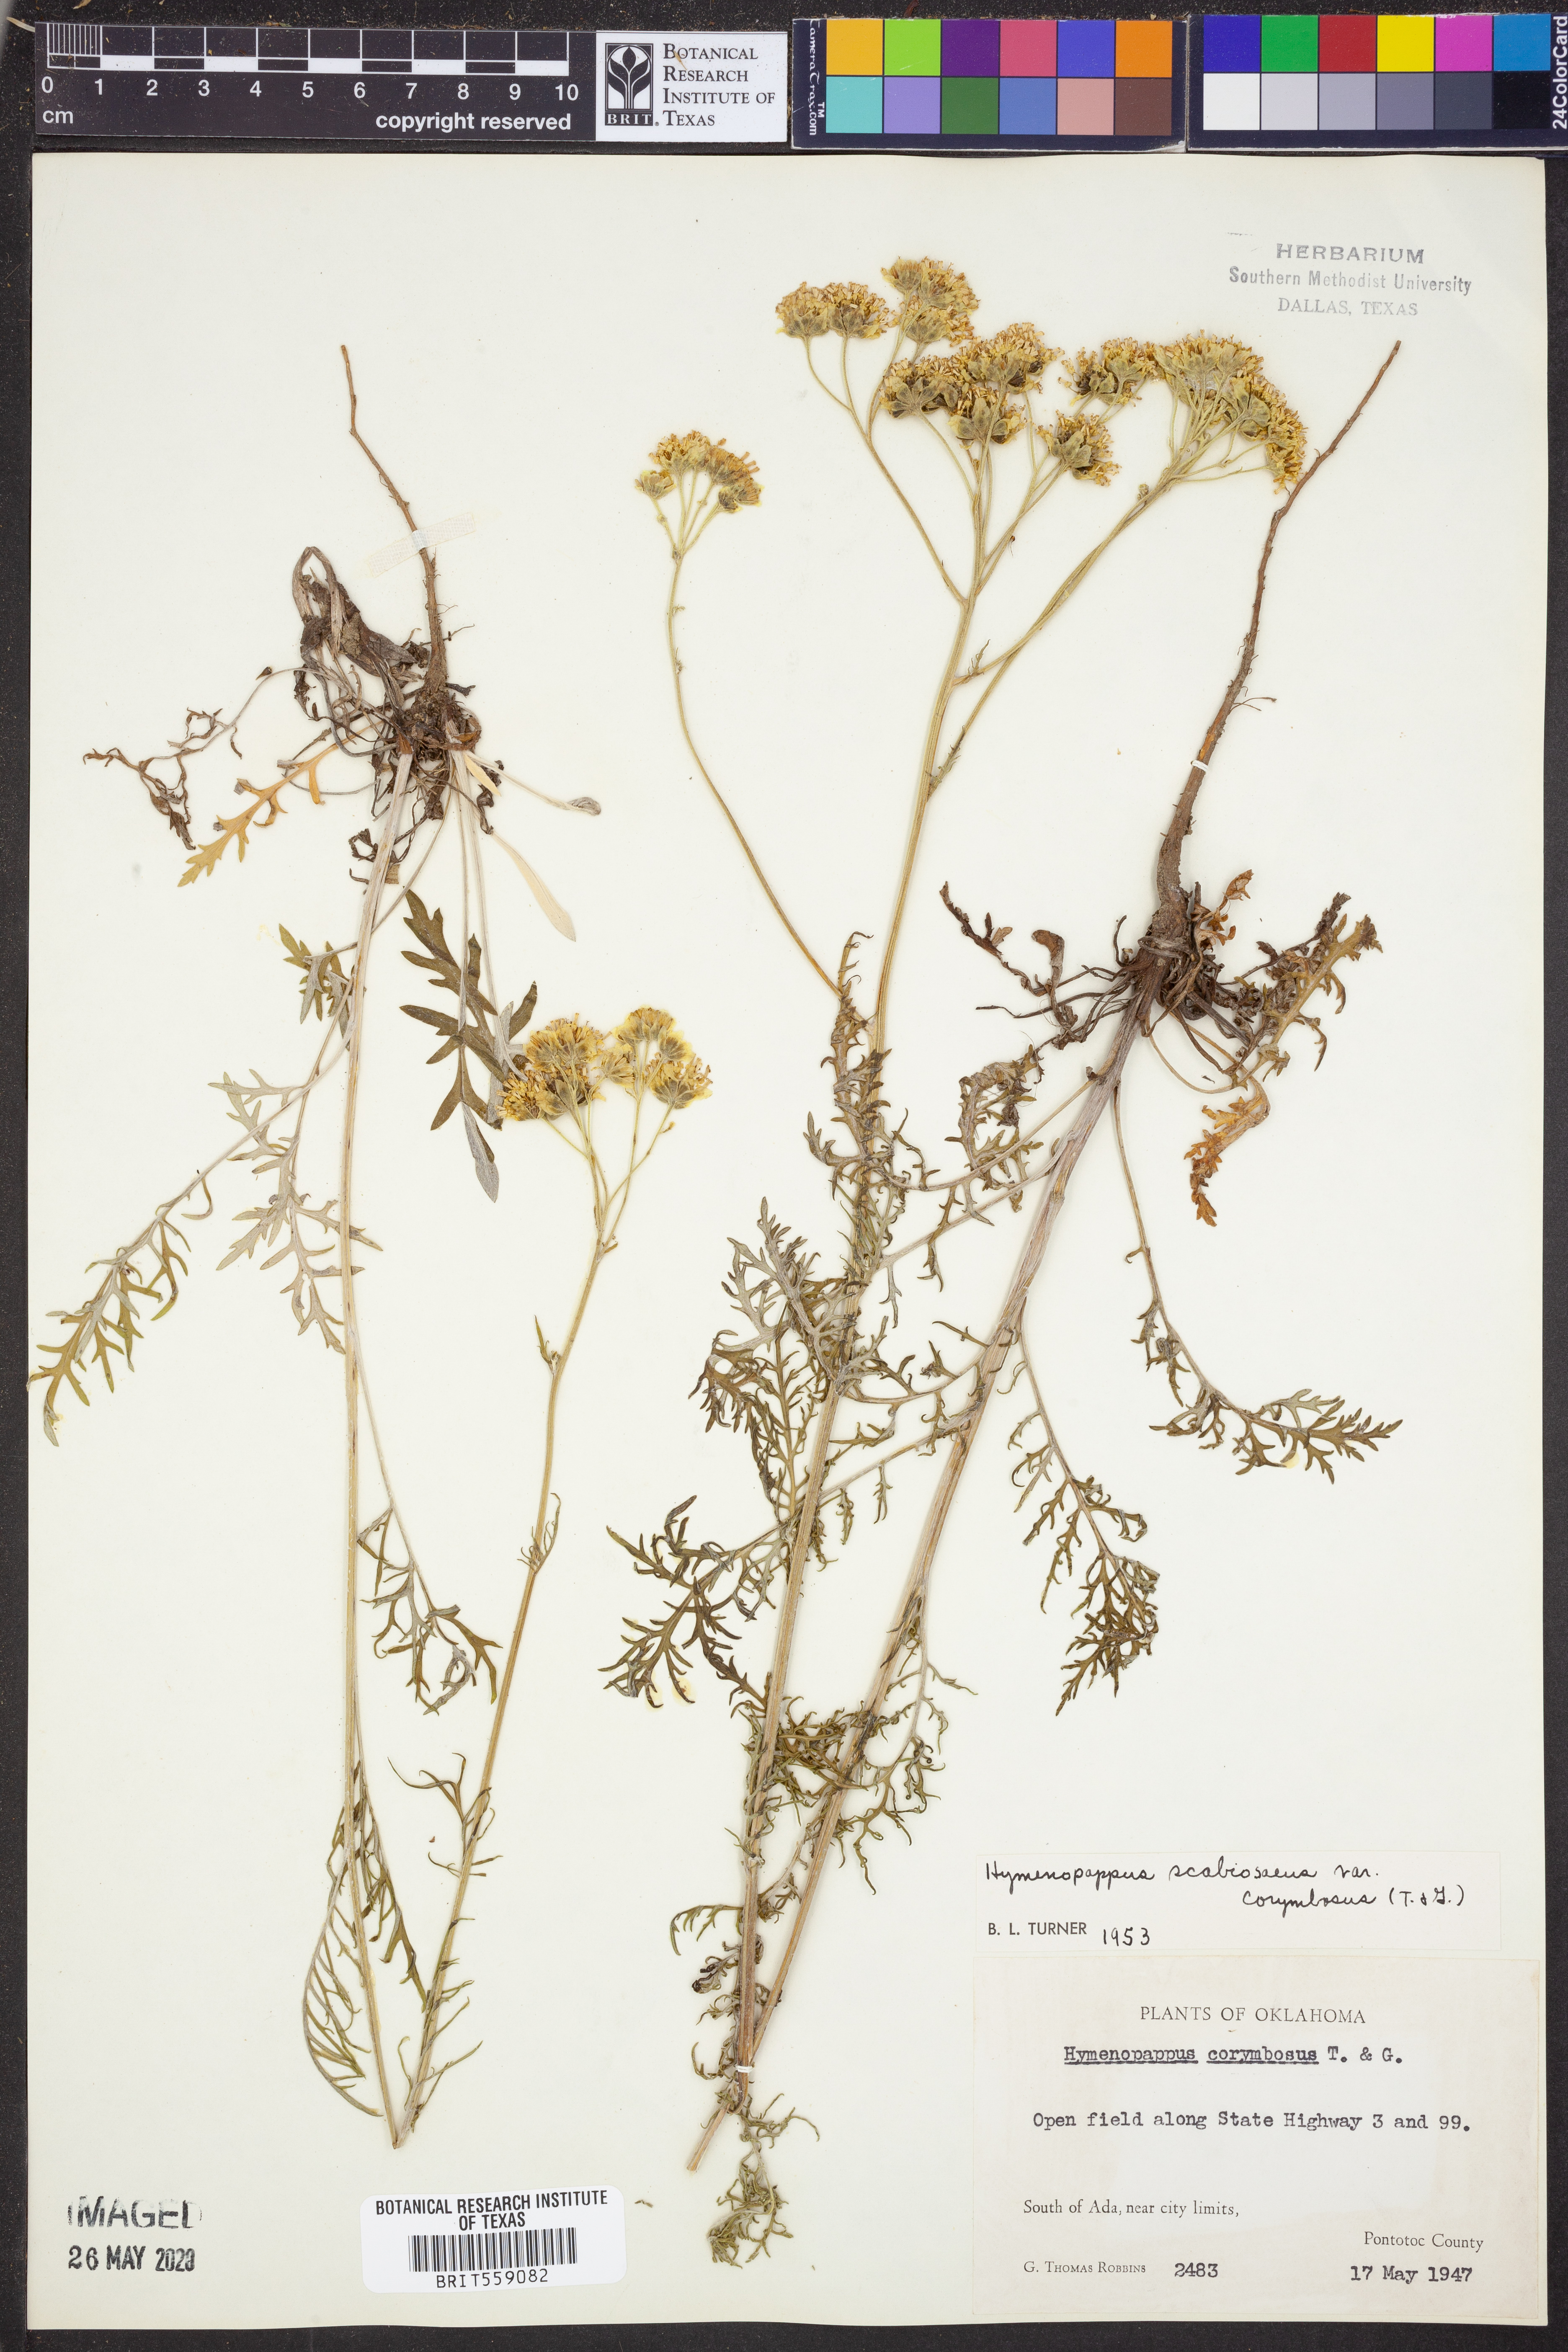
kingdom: Plantae
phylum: Tracheophyta
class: Magnoliopsida
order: Asterales
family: Asteraceae
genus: Hymenopappus
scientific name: Hymenopappus scabiosaeus
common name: Carolina woollywhite
